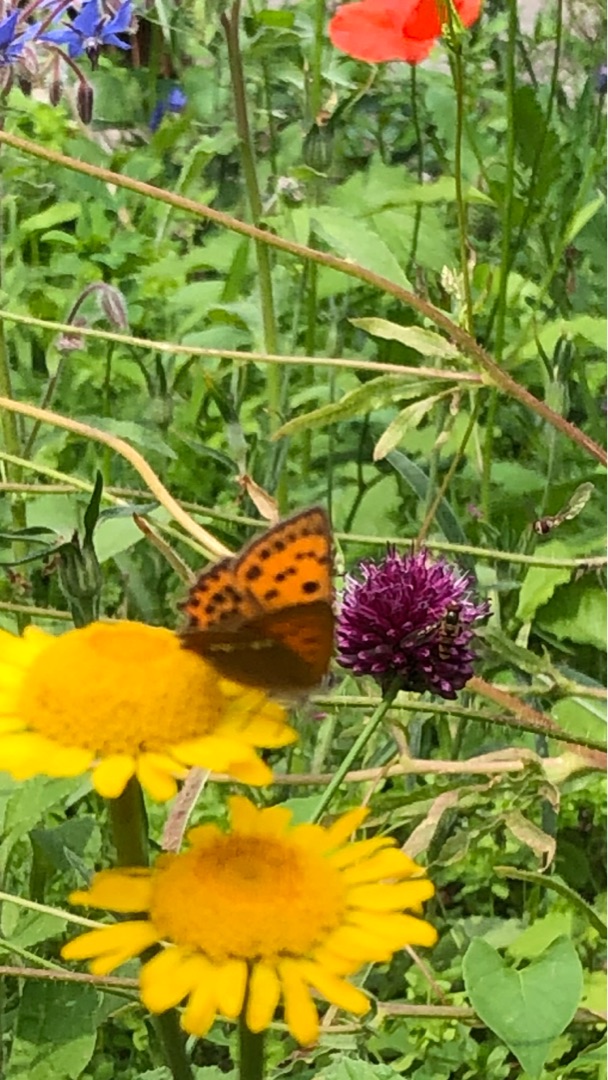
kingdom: Animalia
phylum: Arthropoda
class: Insecta
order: Lepidoptera
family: Lycaenidae
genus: Lycaena
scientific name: Lycaena virgaureae
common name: Dukatsommerfugl
